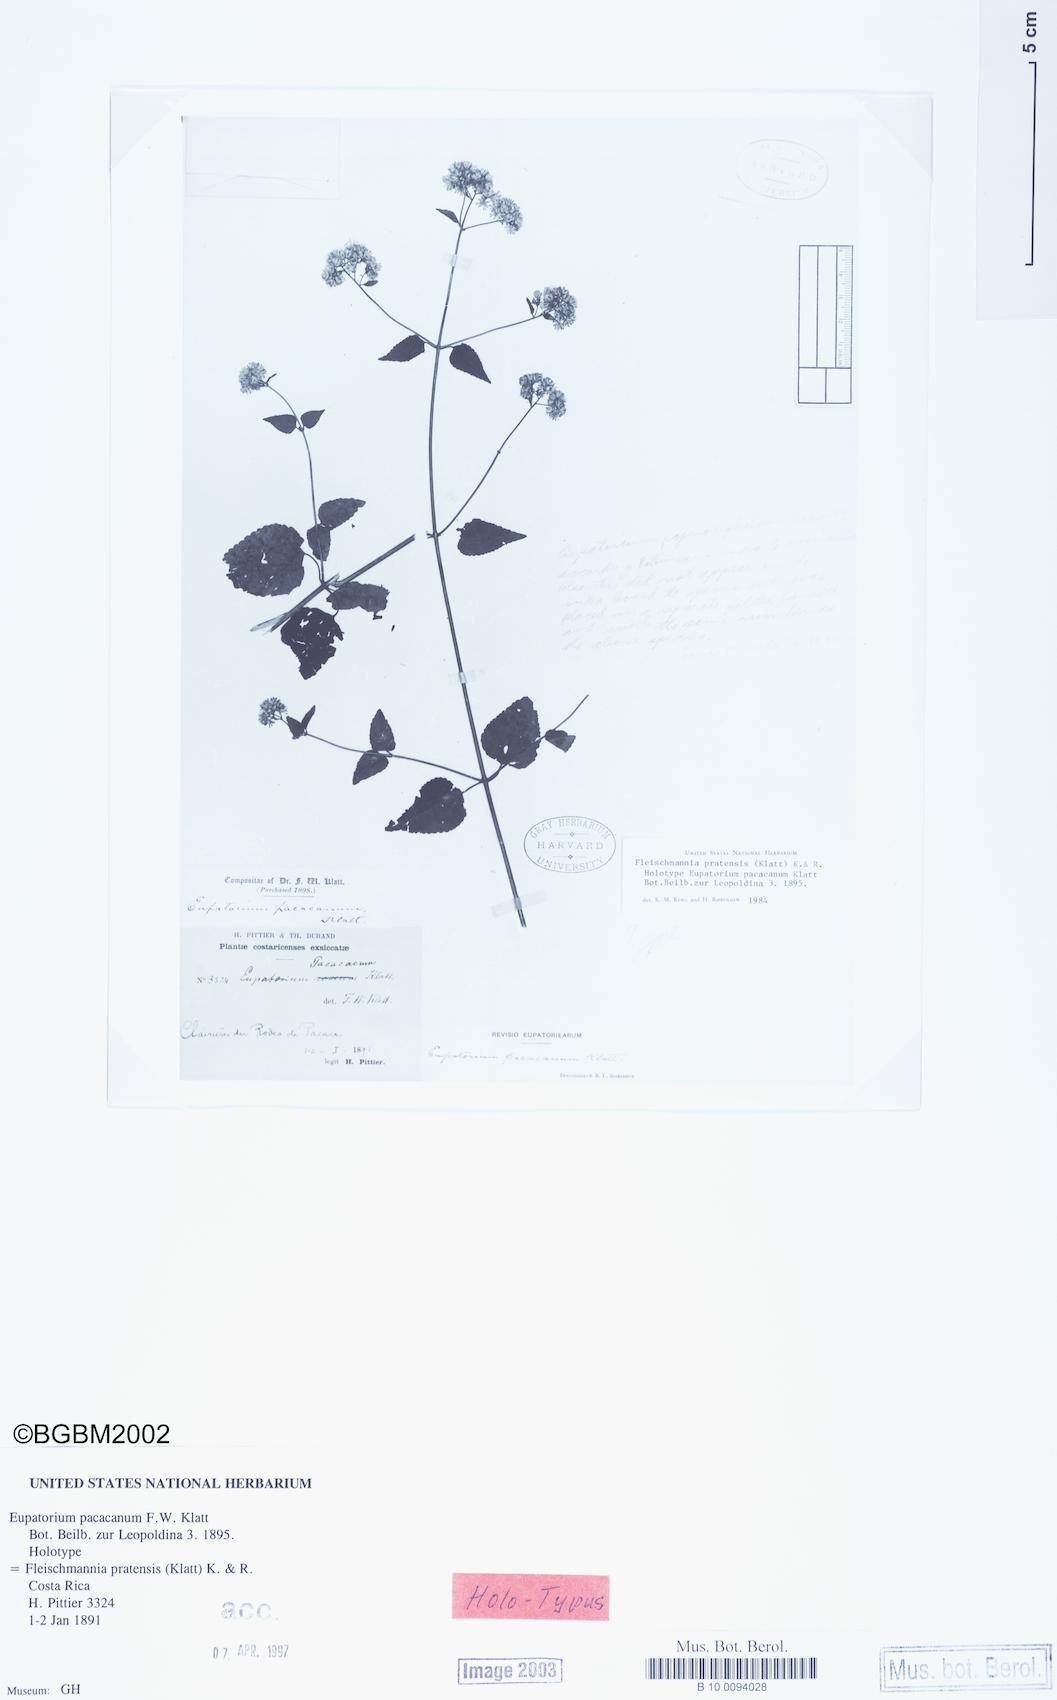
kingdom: Plantae
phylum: Tracheophyta
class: Magnoliopsida
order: Asterales
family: Asteraceae
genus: Fleischmannia
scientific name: Fleischmannia pratensis
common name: Purple-malva
